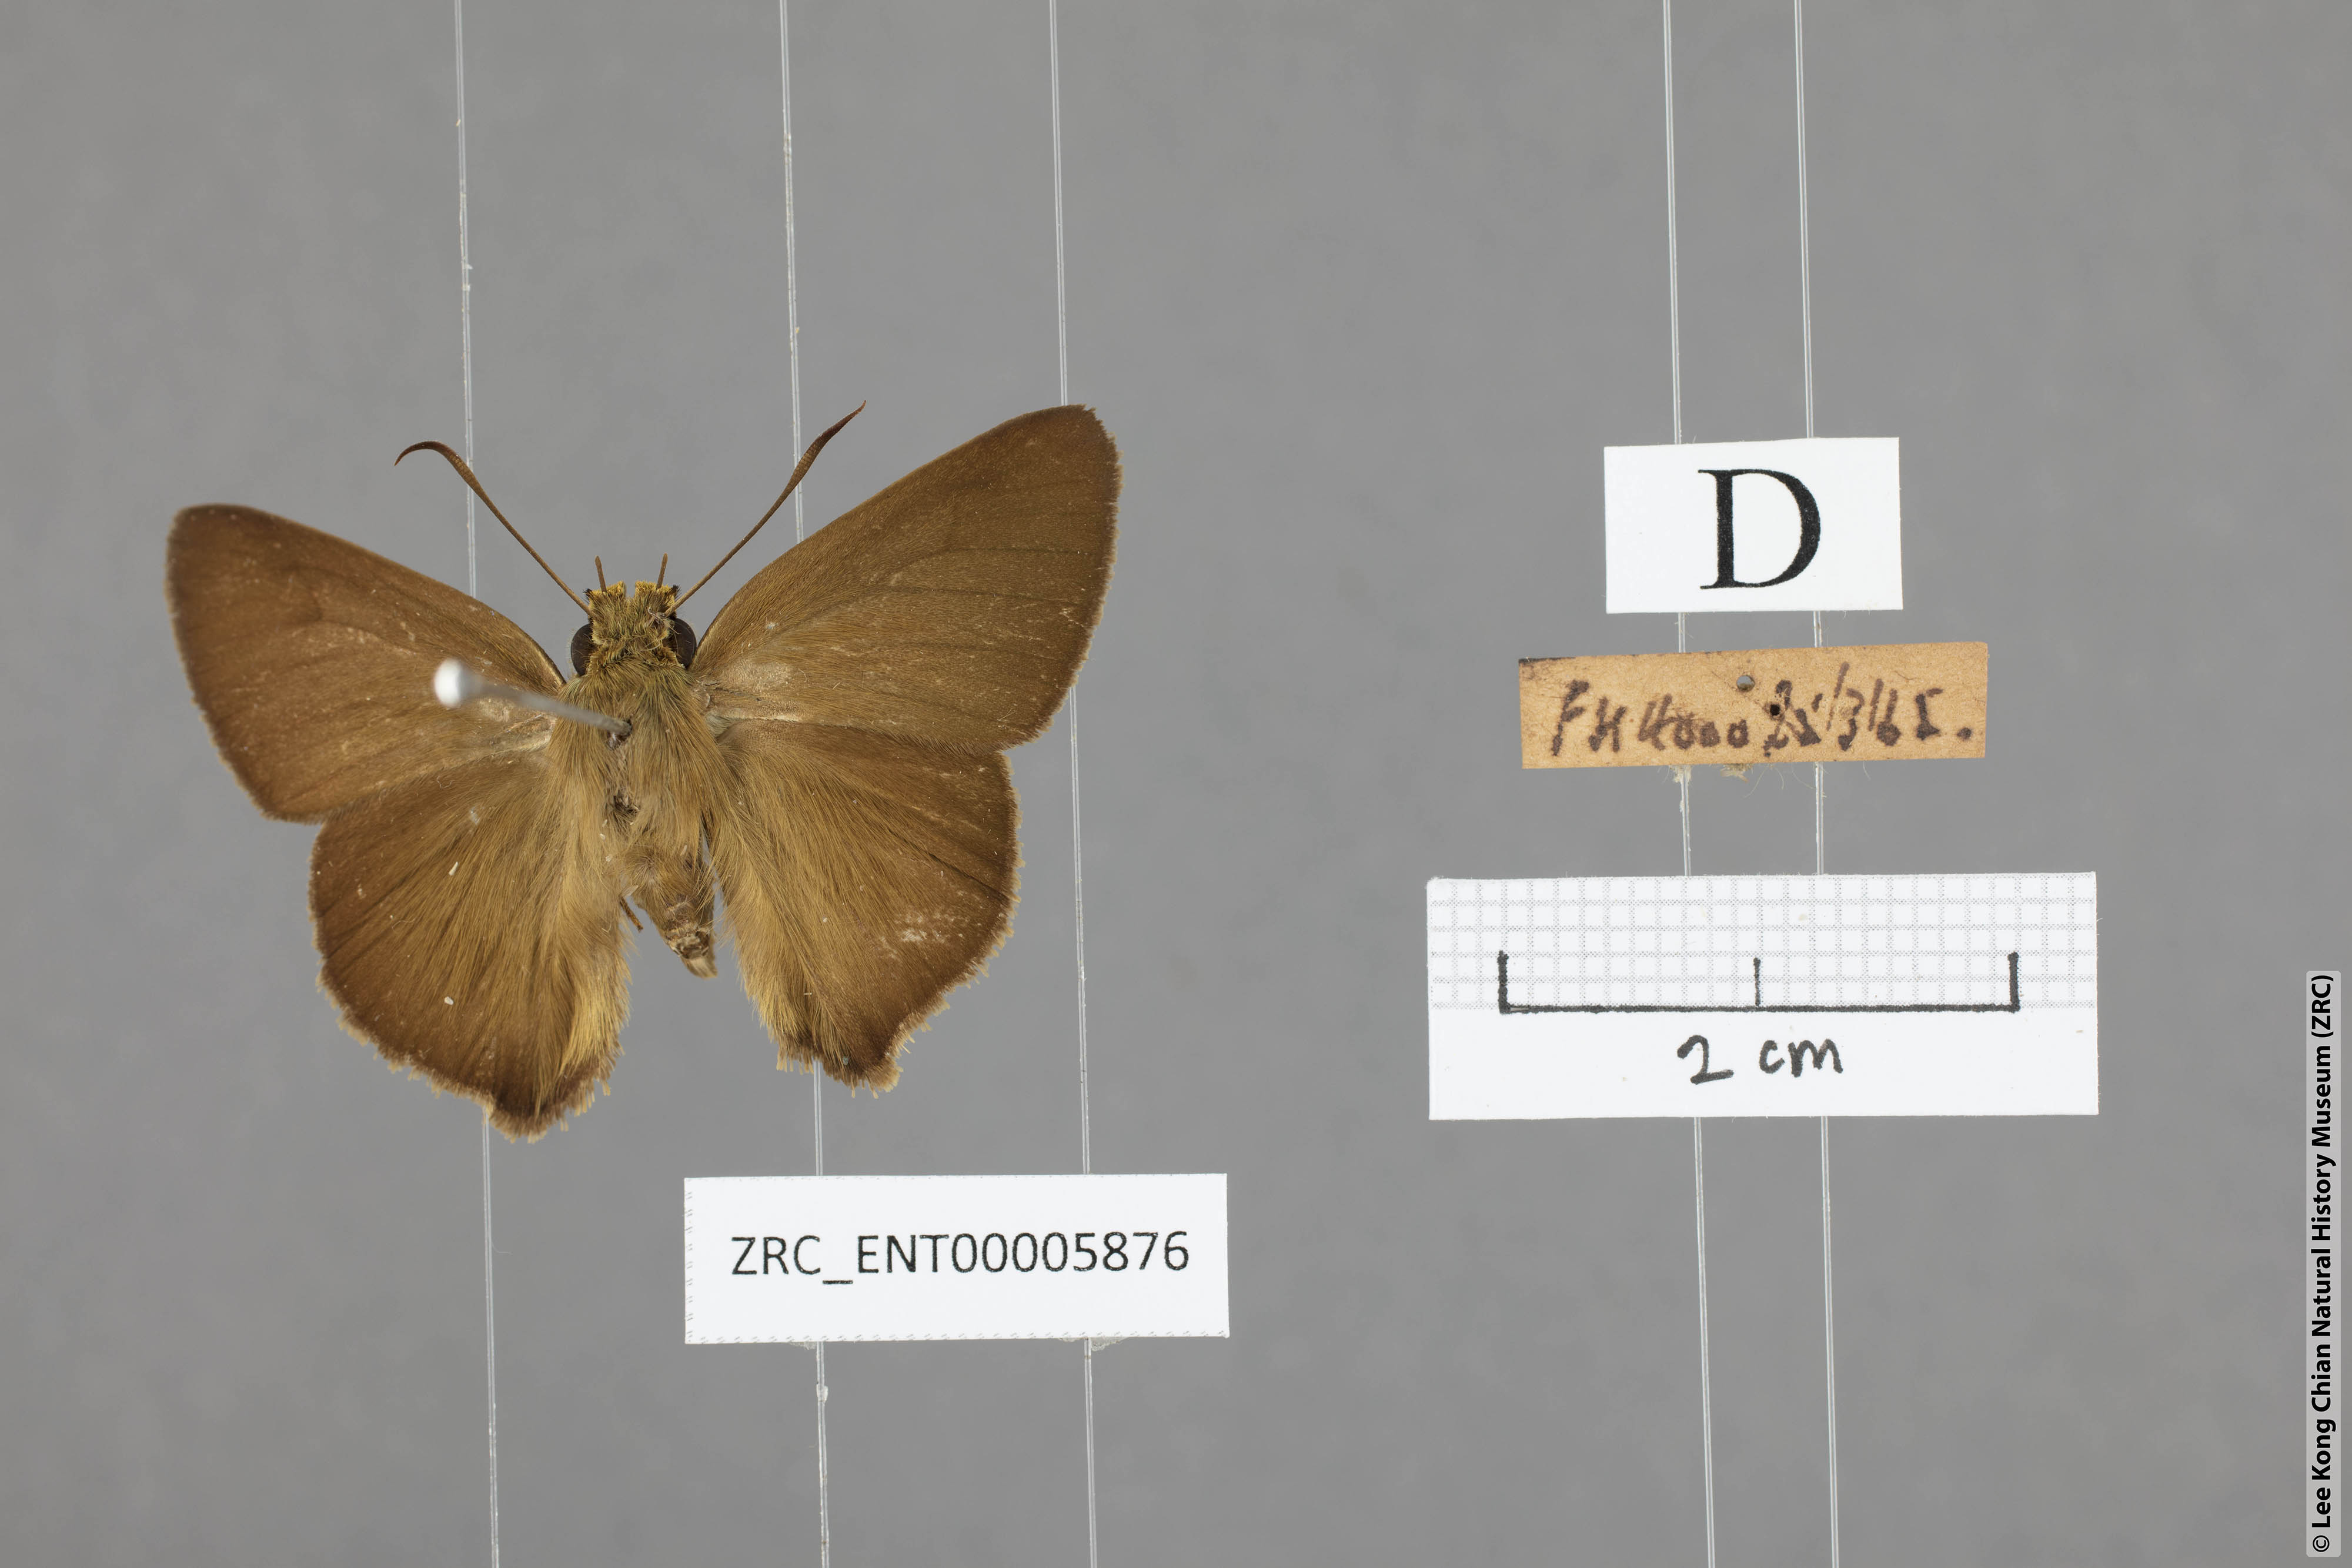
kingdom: Animalia
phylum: Arthropoda
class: Insecta
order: Lepidoptera
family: Hesperiidae
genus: Hasora
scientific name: Hasora mus
